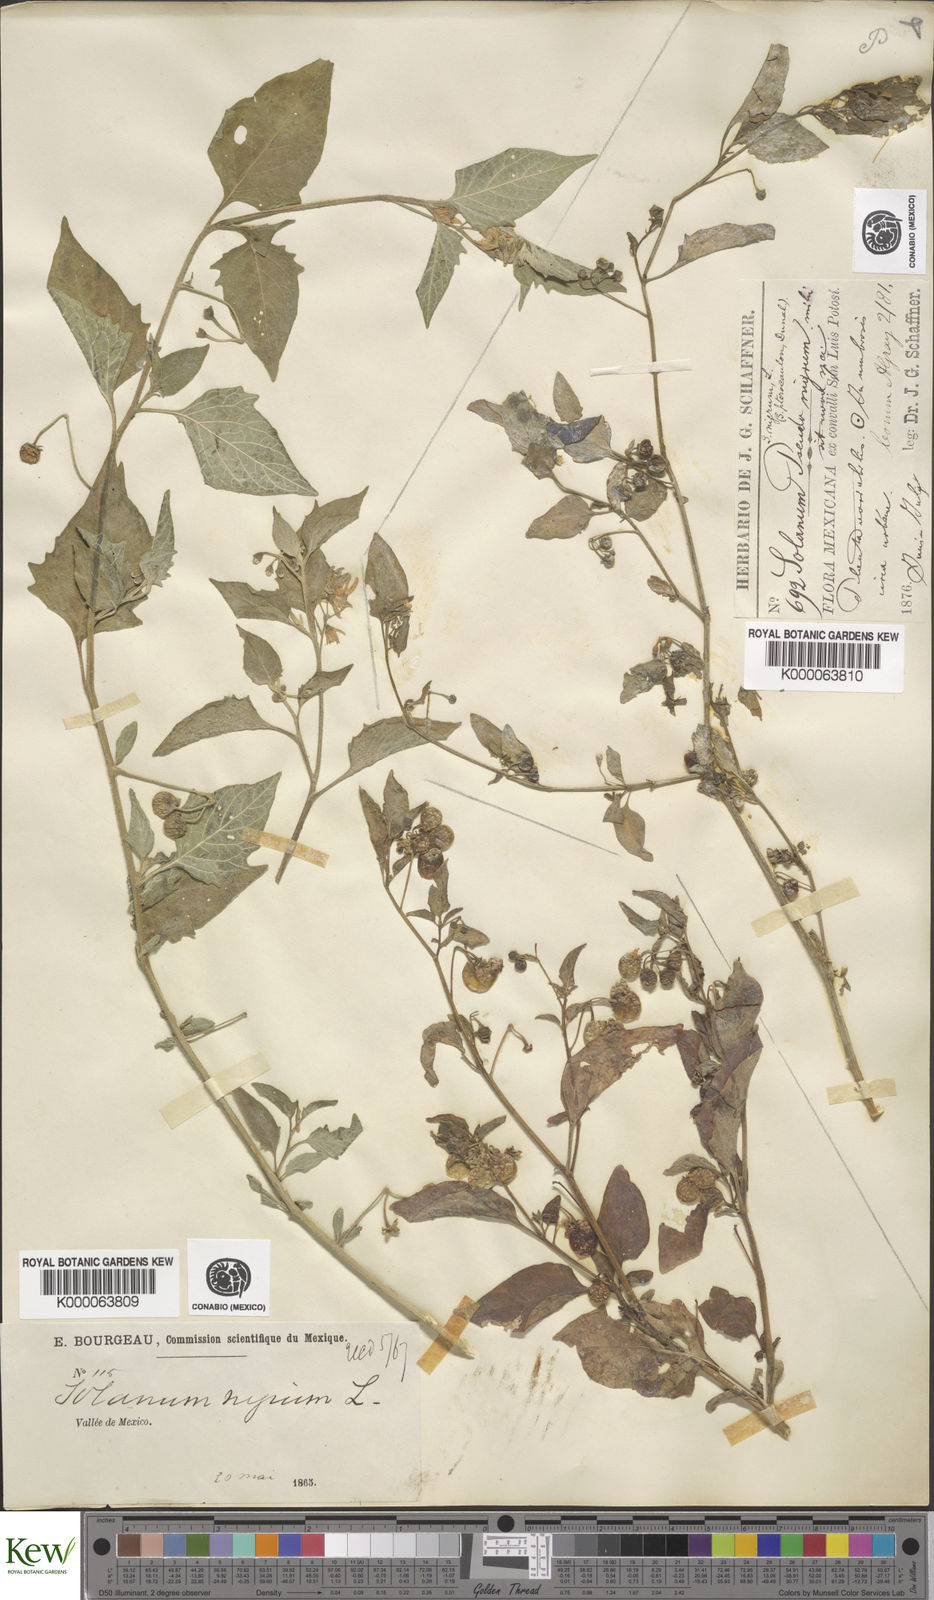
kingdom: Plantae
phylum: Tracheophyta
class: Magnoliopsida
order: Solanales
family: Solanaceae
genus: Solanum
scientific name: Solanum americanum
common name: American black nightshade
